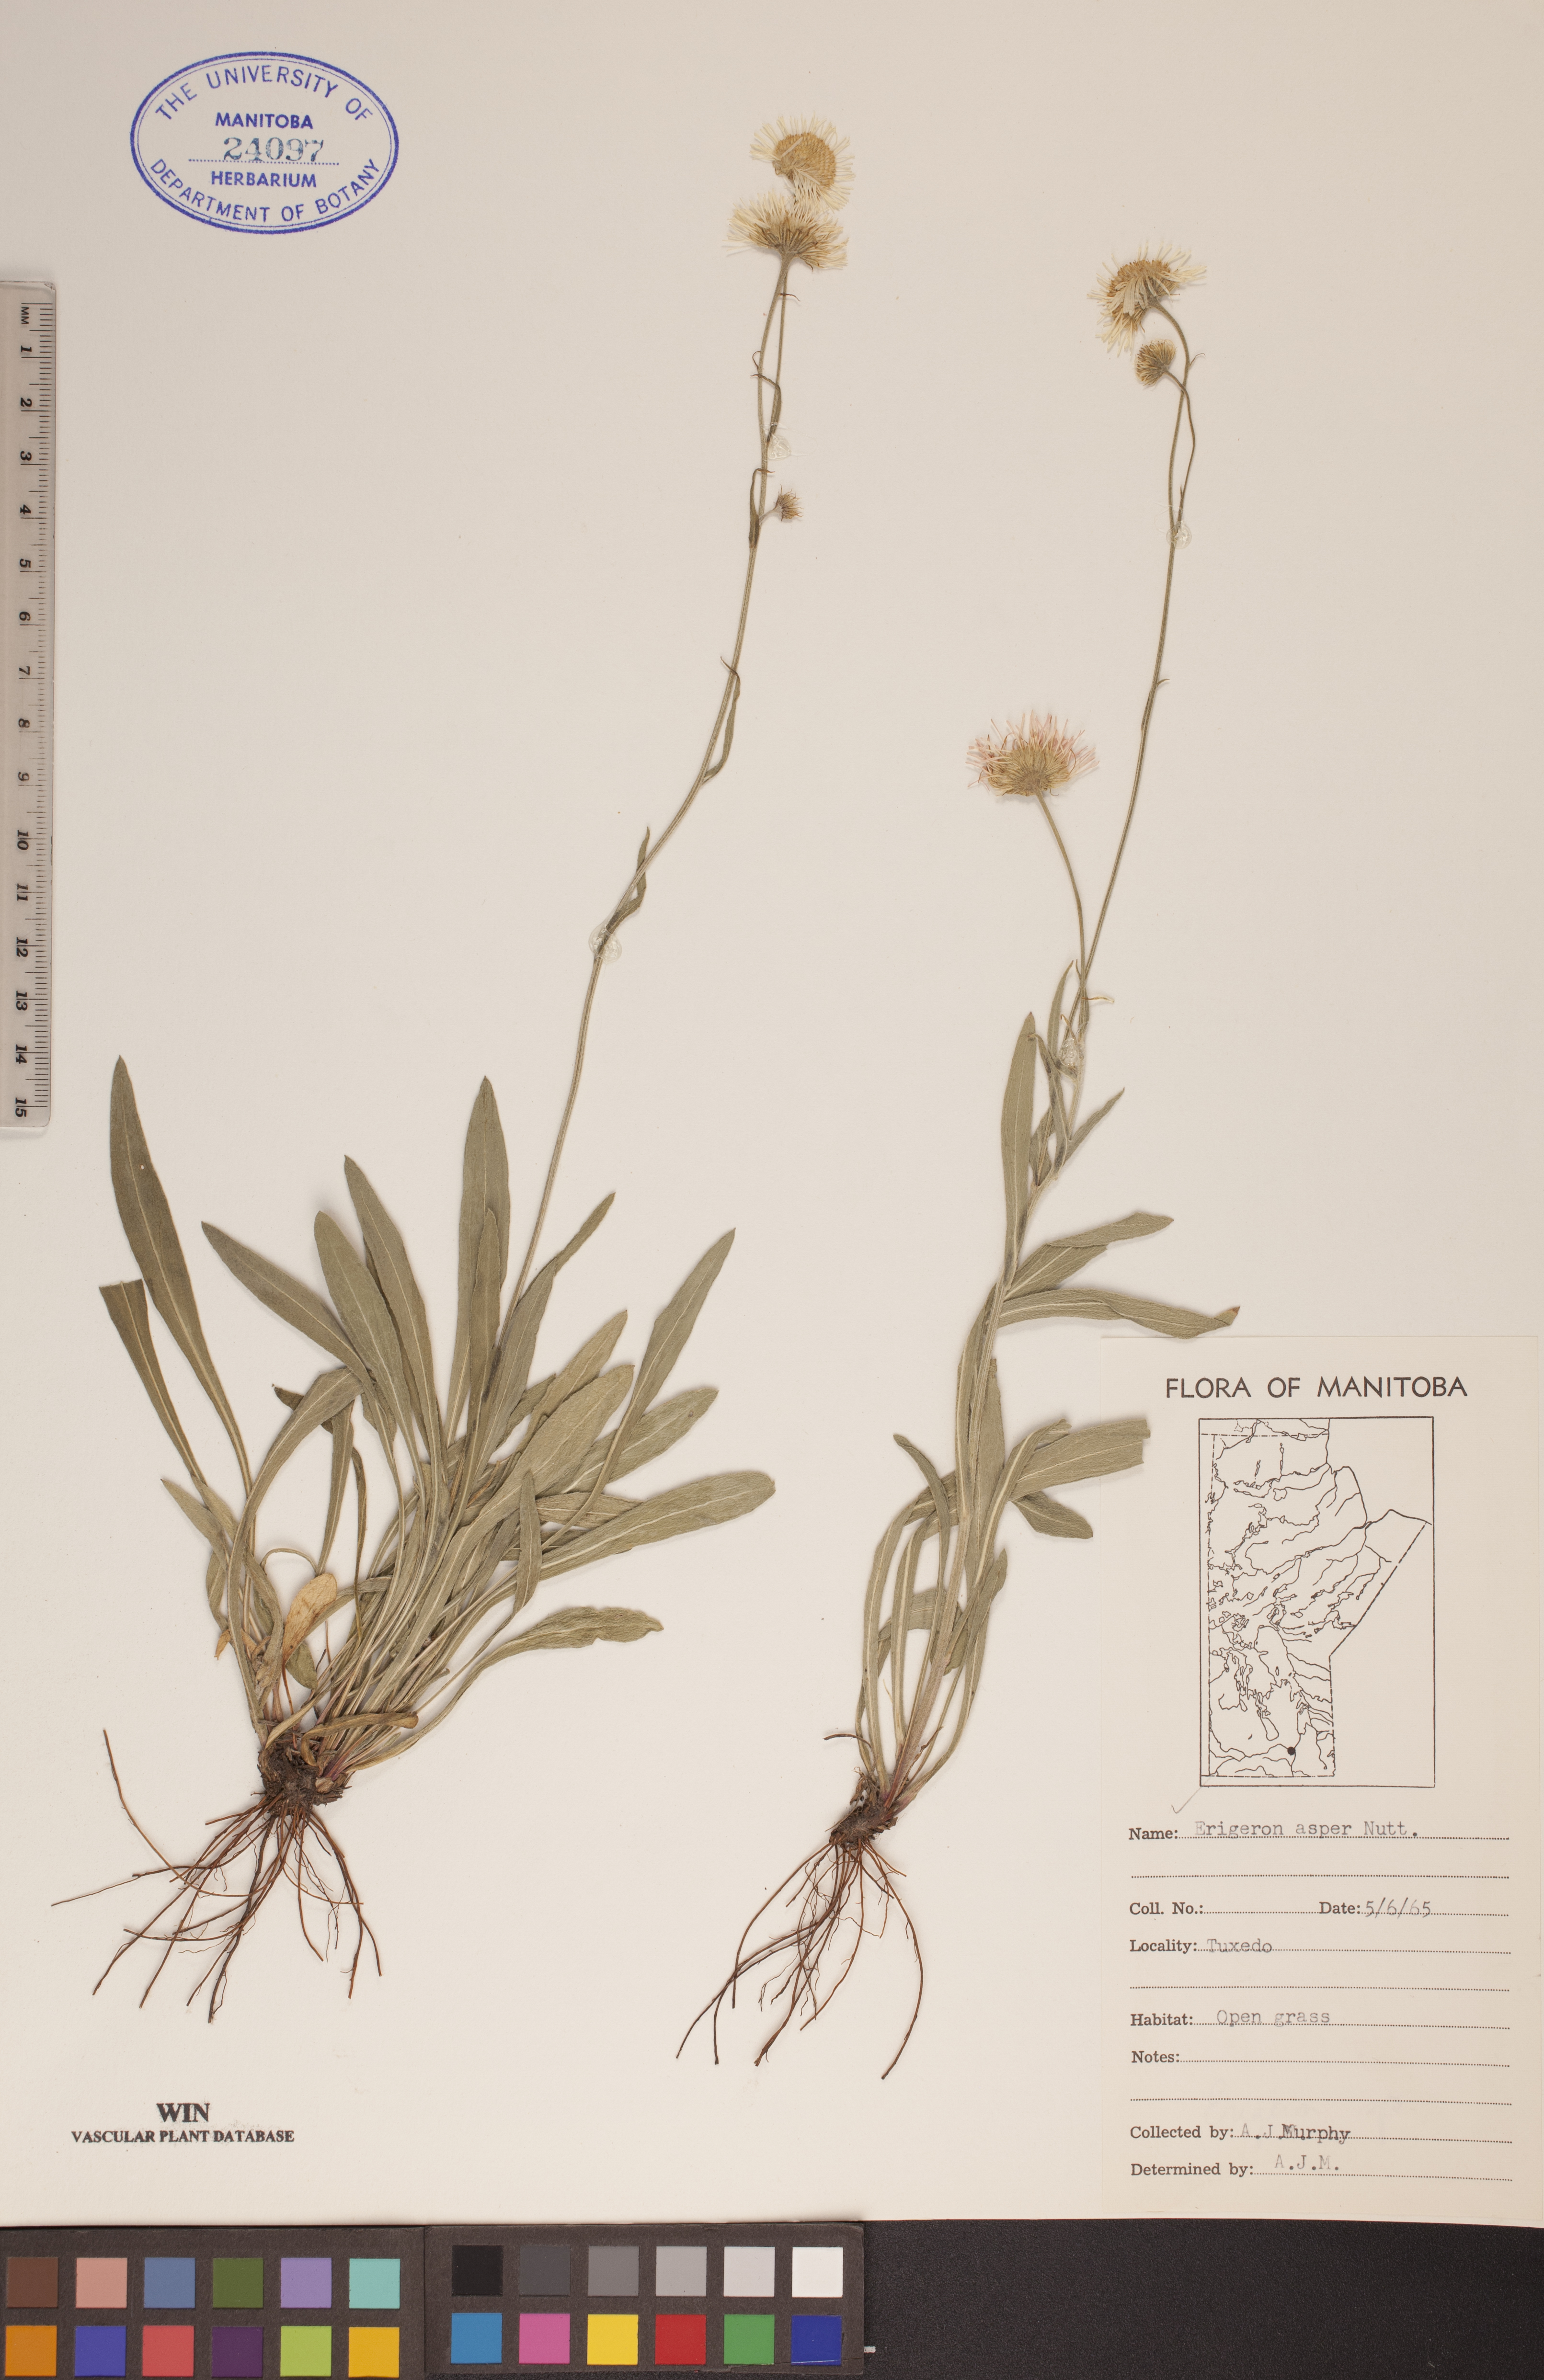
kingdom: Plantae
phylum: Tracheophyta
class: Magnoliopsida
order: Asterales
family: Asteraceae
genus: Erigeron
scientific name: Erigeron glabellus
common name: Smooth fleabane
